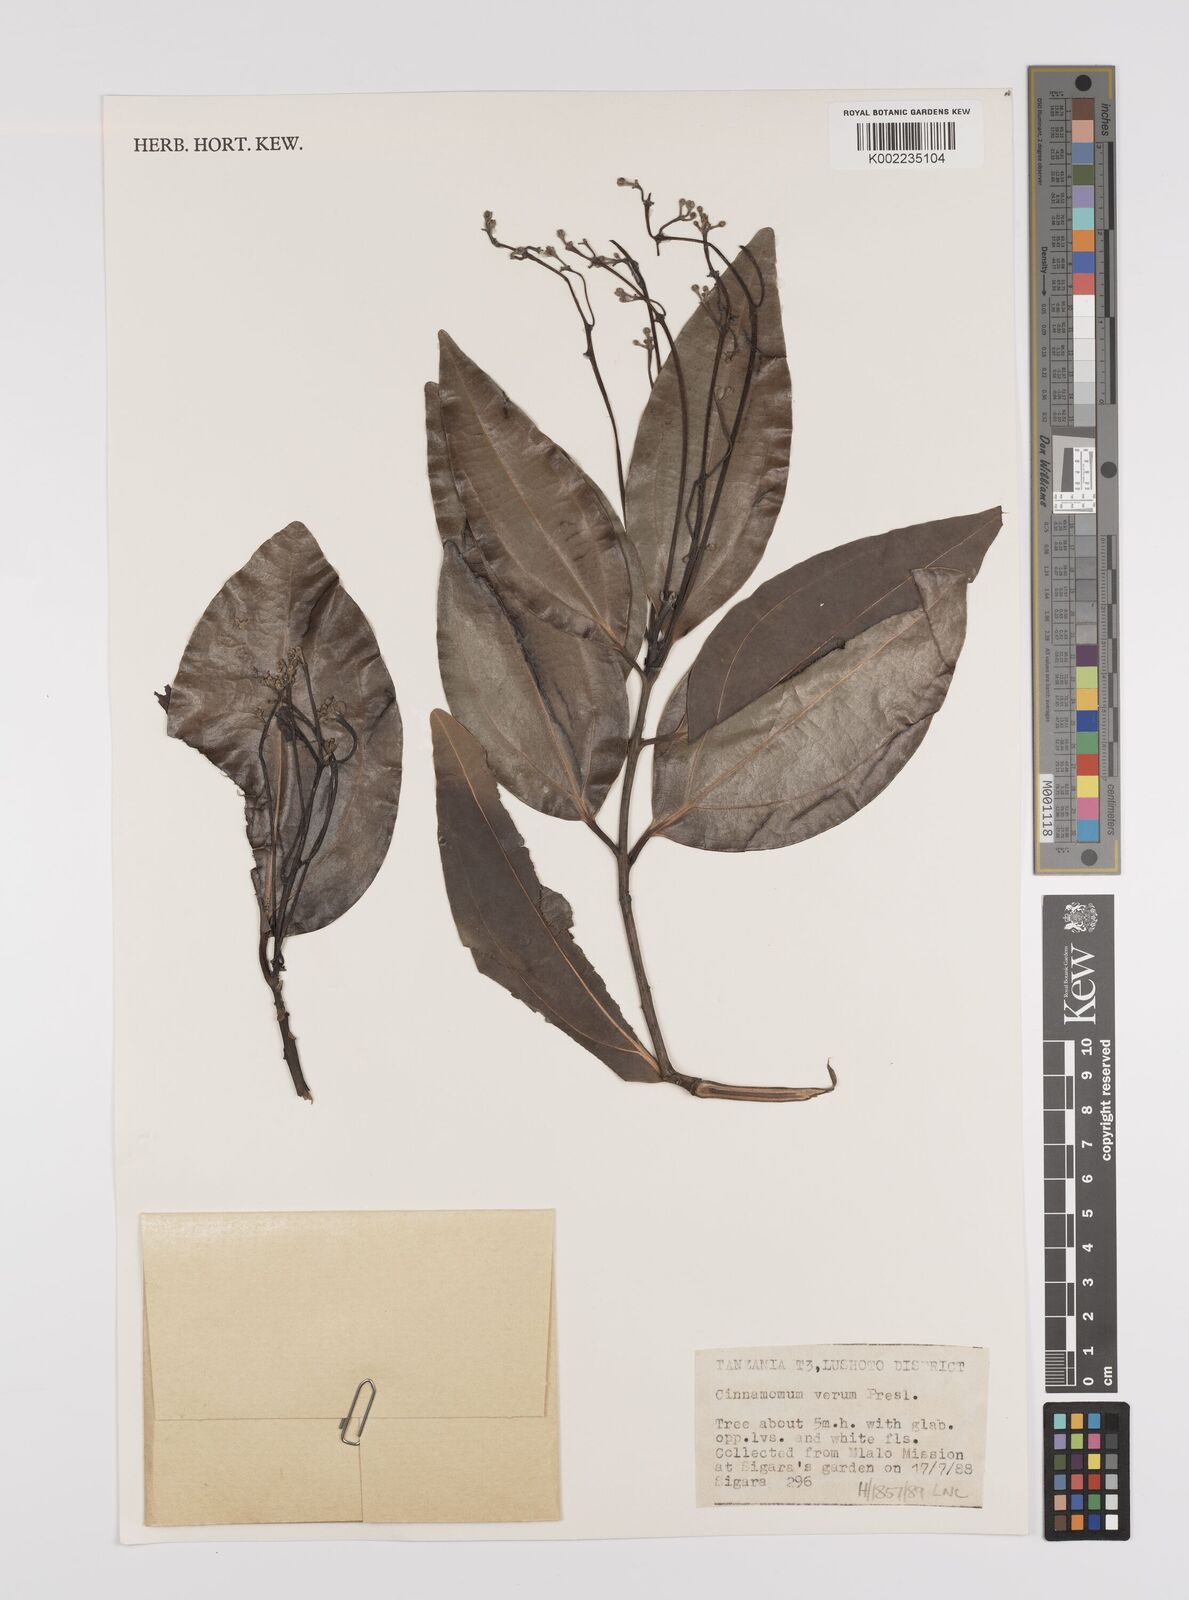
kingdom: Plantae
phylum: Tracheophyta
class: Magnoliopsida
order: Laurales
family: Lauraceae
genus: Cinnamomum
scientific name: Cinnamomum verum
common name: Cinnamon
